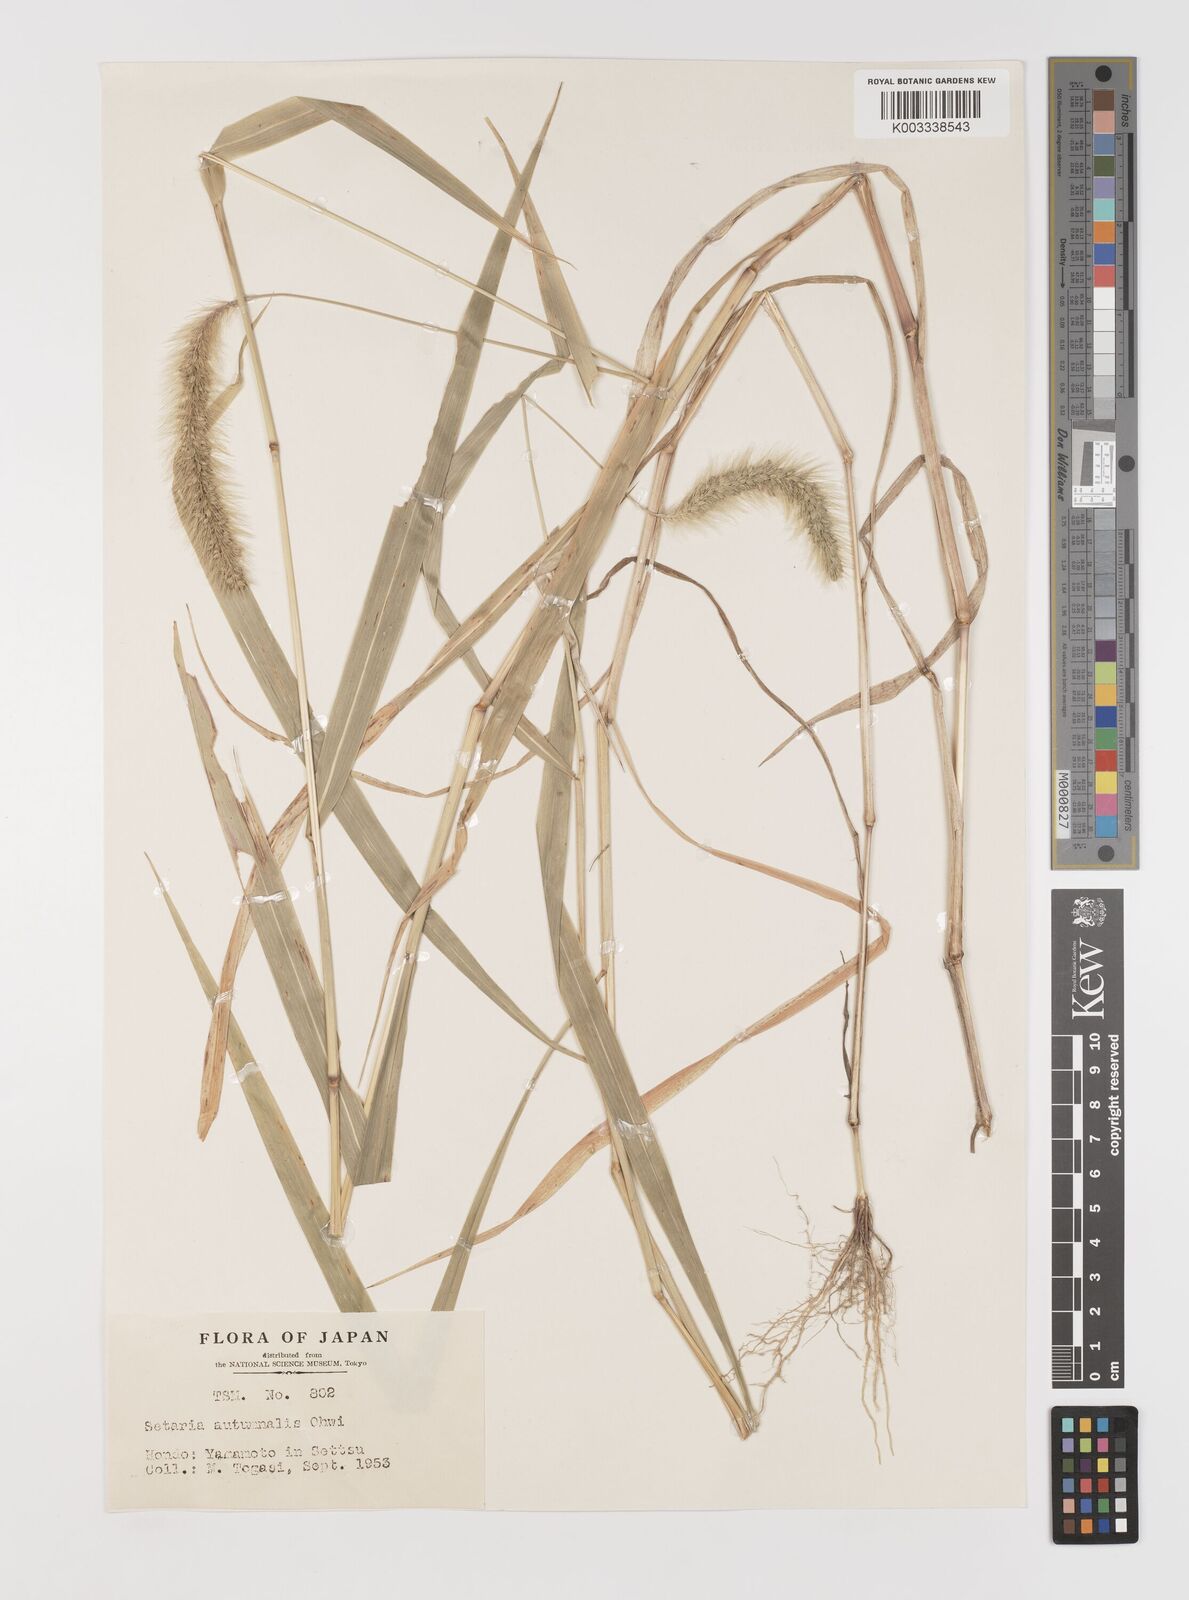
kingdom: Plantae
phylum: Tracheophyta
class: Liliopsida
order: Poales
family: Poaceae
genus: Setaria
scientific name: Setaria faberi
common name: Nodding bristle-grass
